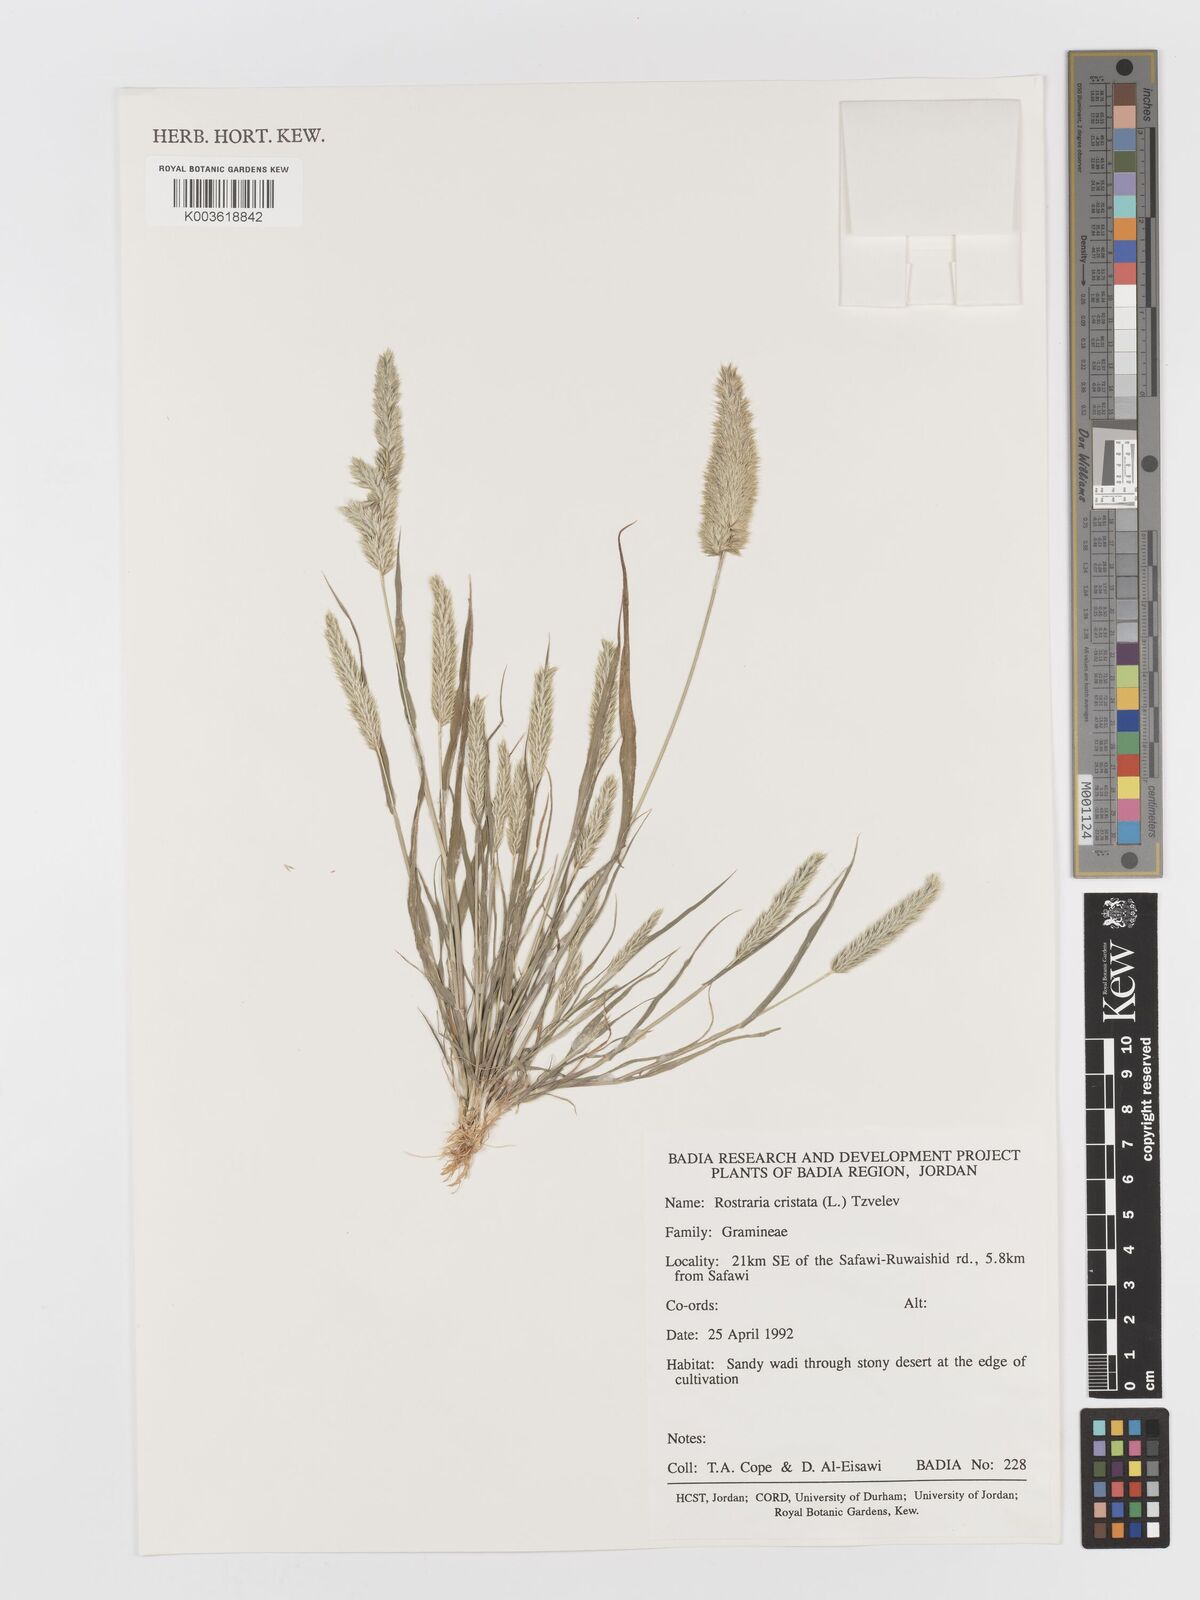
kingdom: Plantae
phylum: Tracheophyta
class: Liliopsida
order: Poales
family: Poaceae
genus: Rostraria
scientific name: Rostraria cristata
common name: Mediterranean hair-grass
